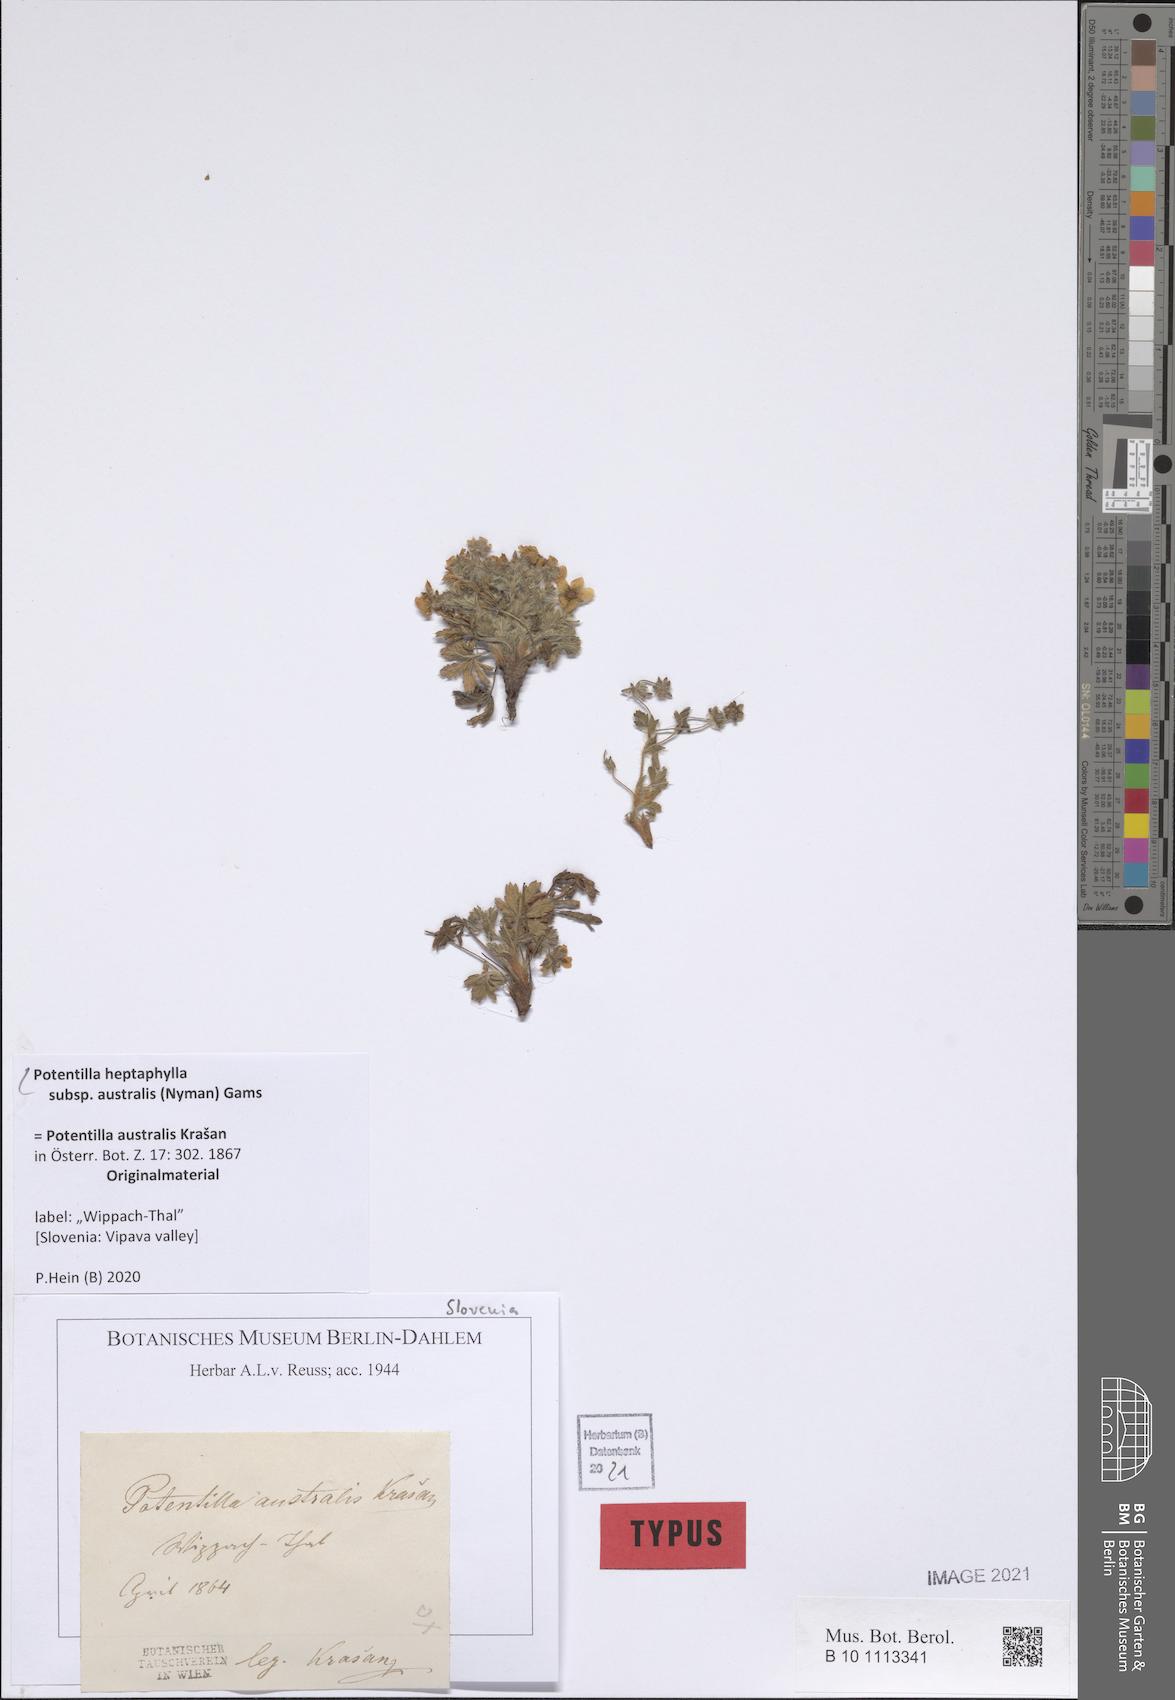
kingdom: Plantae
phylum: Tracheophyta
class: Magnoliopsida
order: Rosales
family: Rosaceae
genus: Potentilla
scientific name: Potentilla heptaphylla
